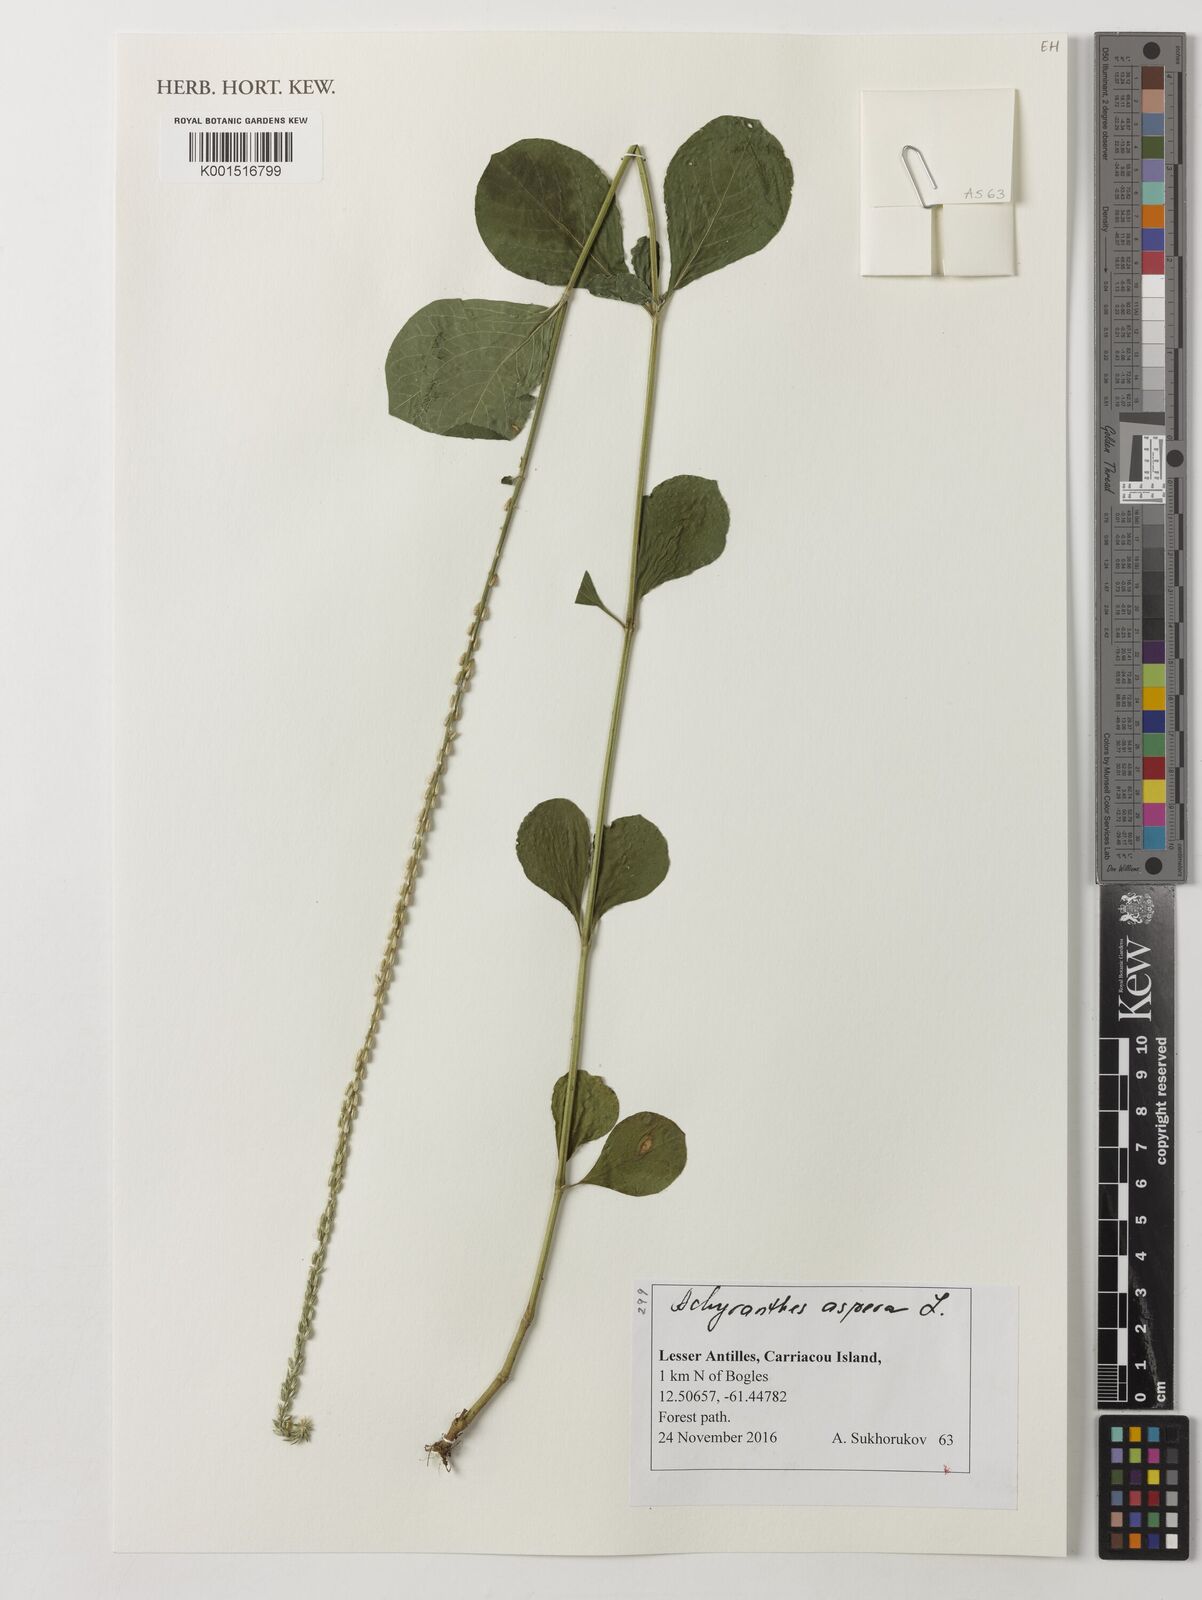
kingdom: Plantae
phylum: Tracheophyta
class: Magnoliopsida
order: Caryophyllales
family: Amaranthaceae
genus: Achyranthes
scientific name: Achyranthes aspera
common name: Devil's horsewhip
